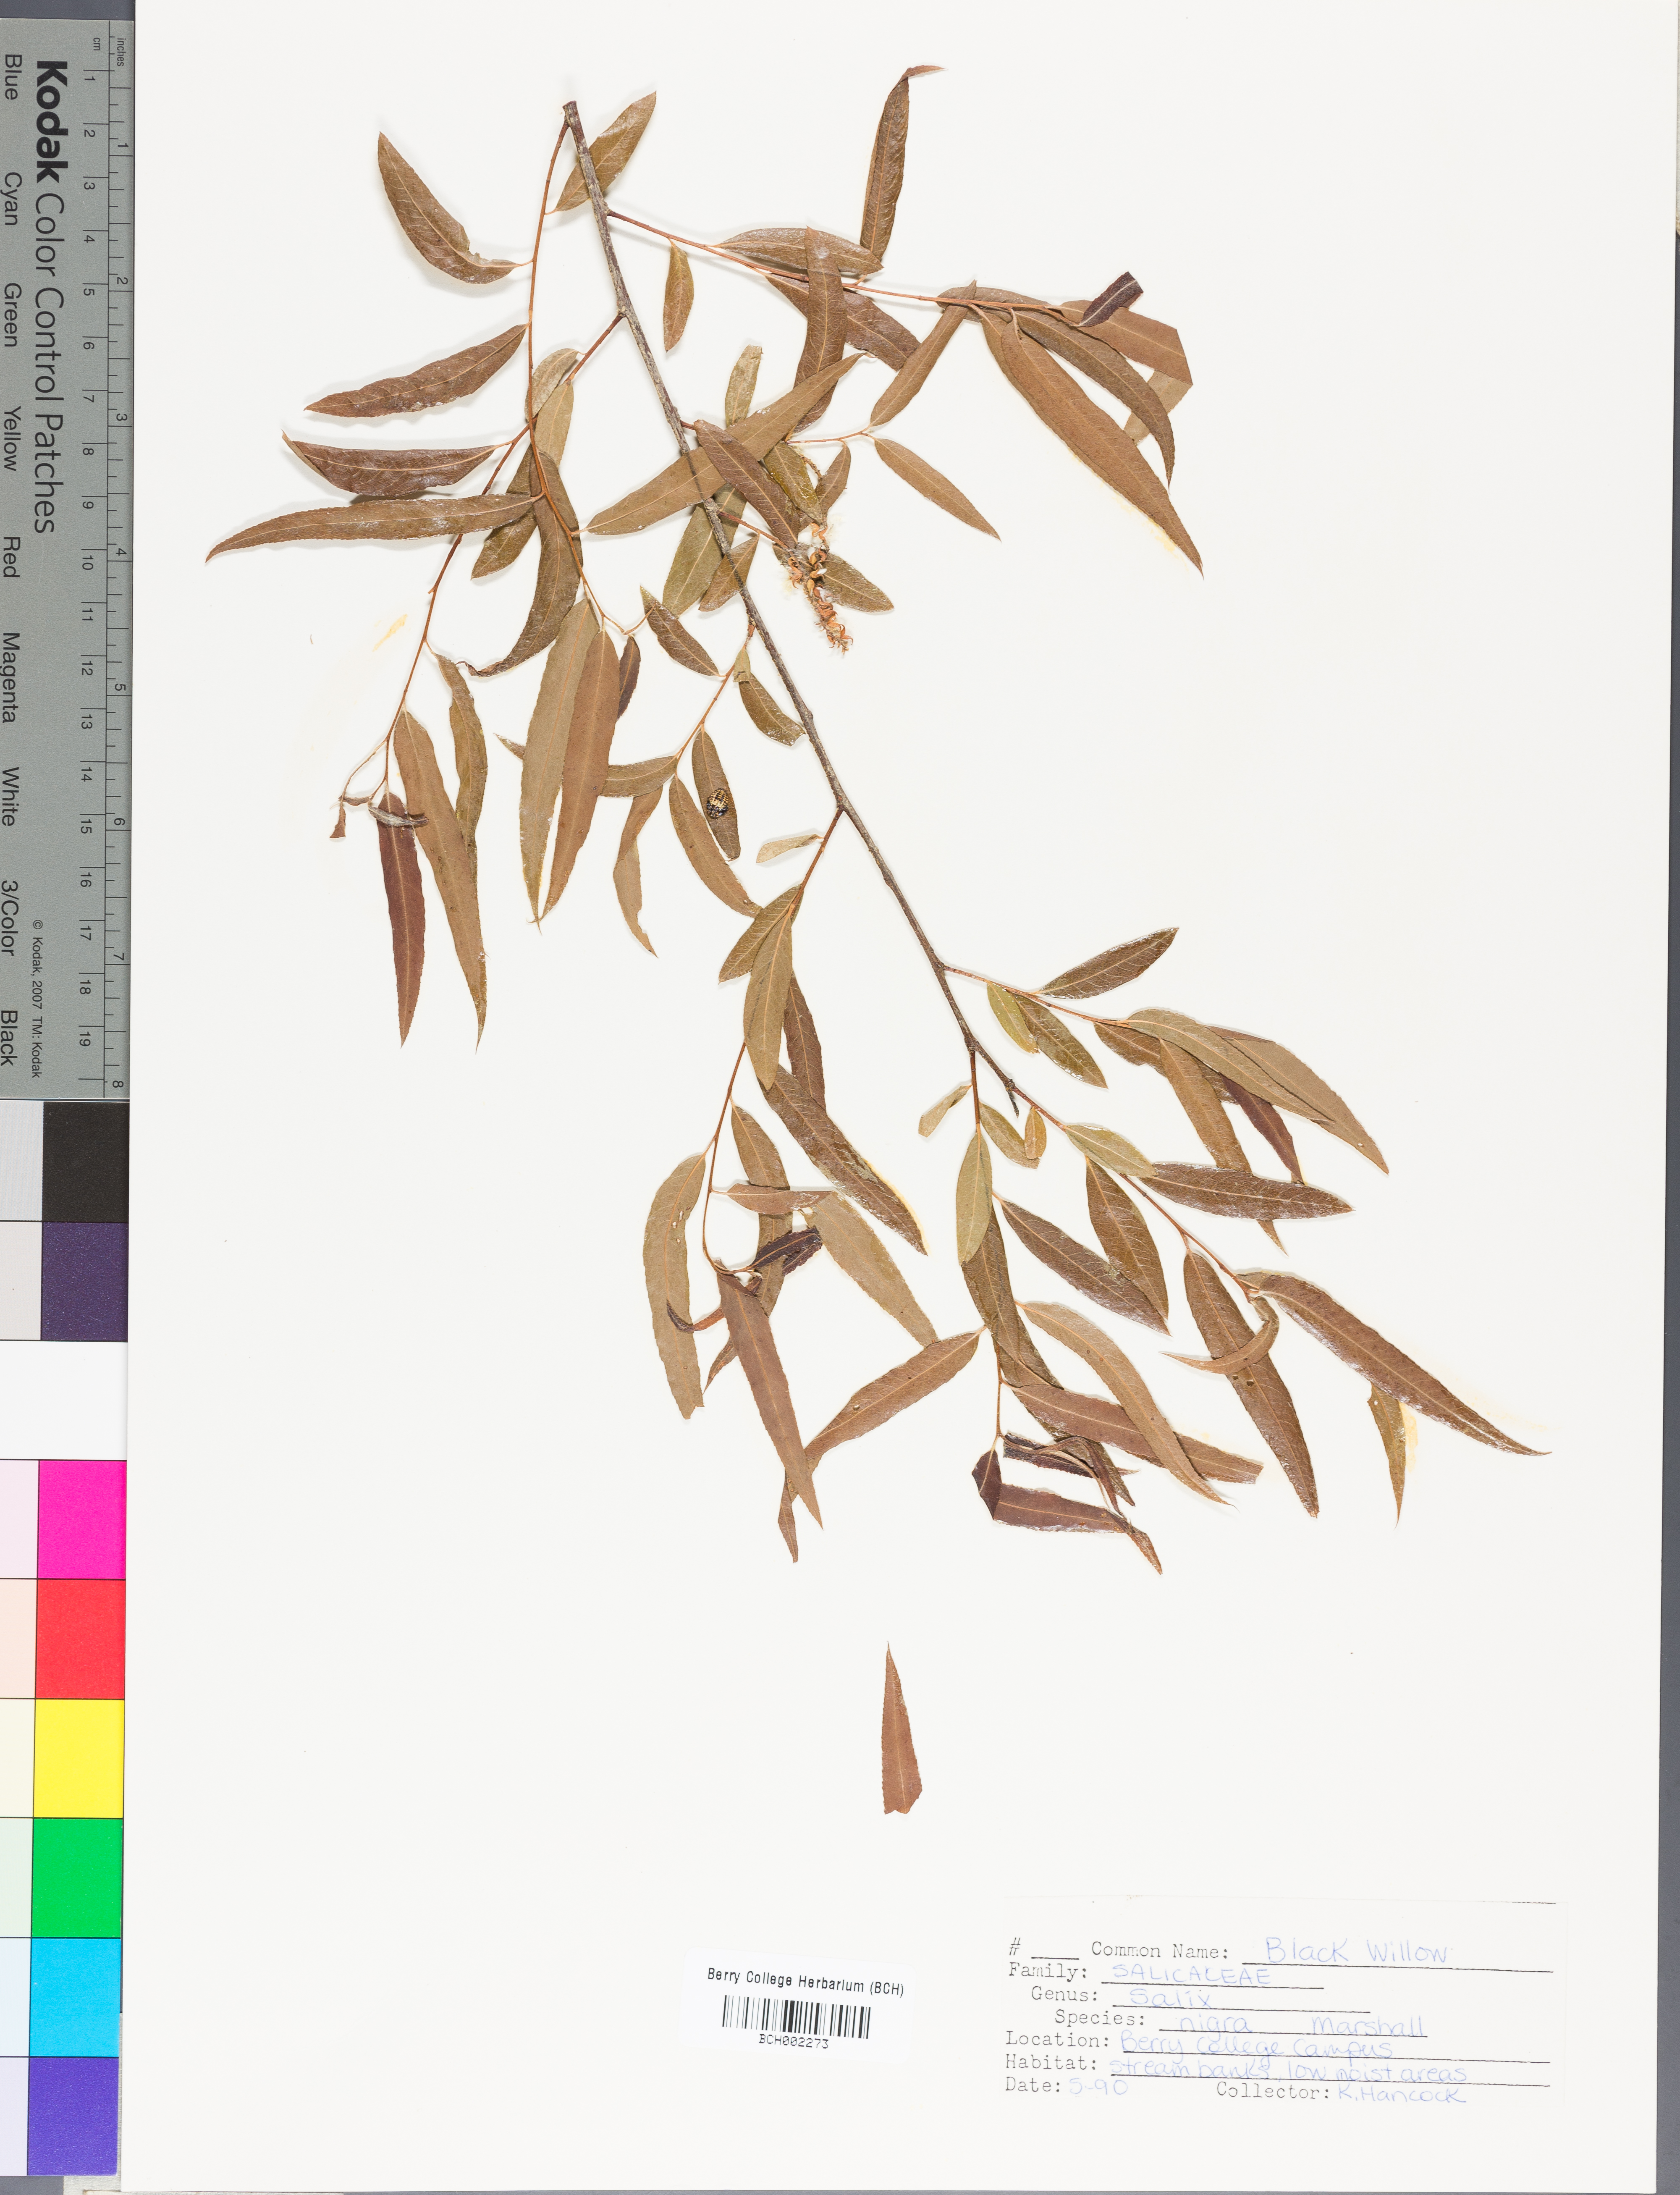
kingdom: Plantae
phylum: Tracheophyta
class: Magnoliopsida
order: Malpighiales
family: Salicaceae
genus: Salix
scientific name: Salix nigra
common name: Black willow
